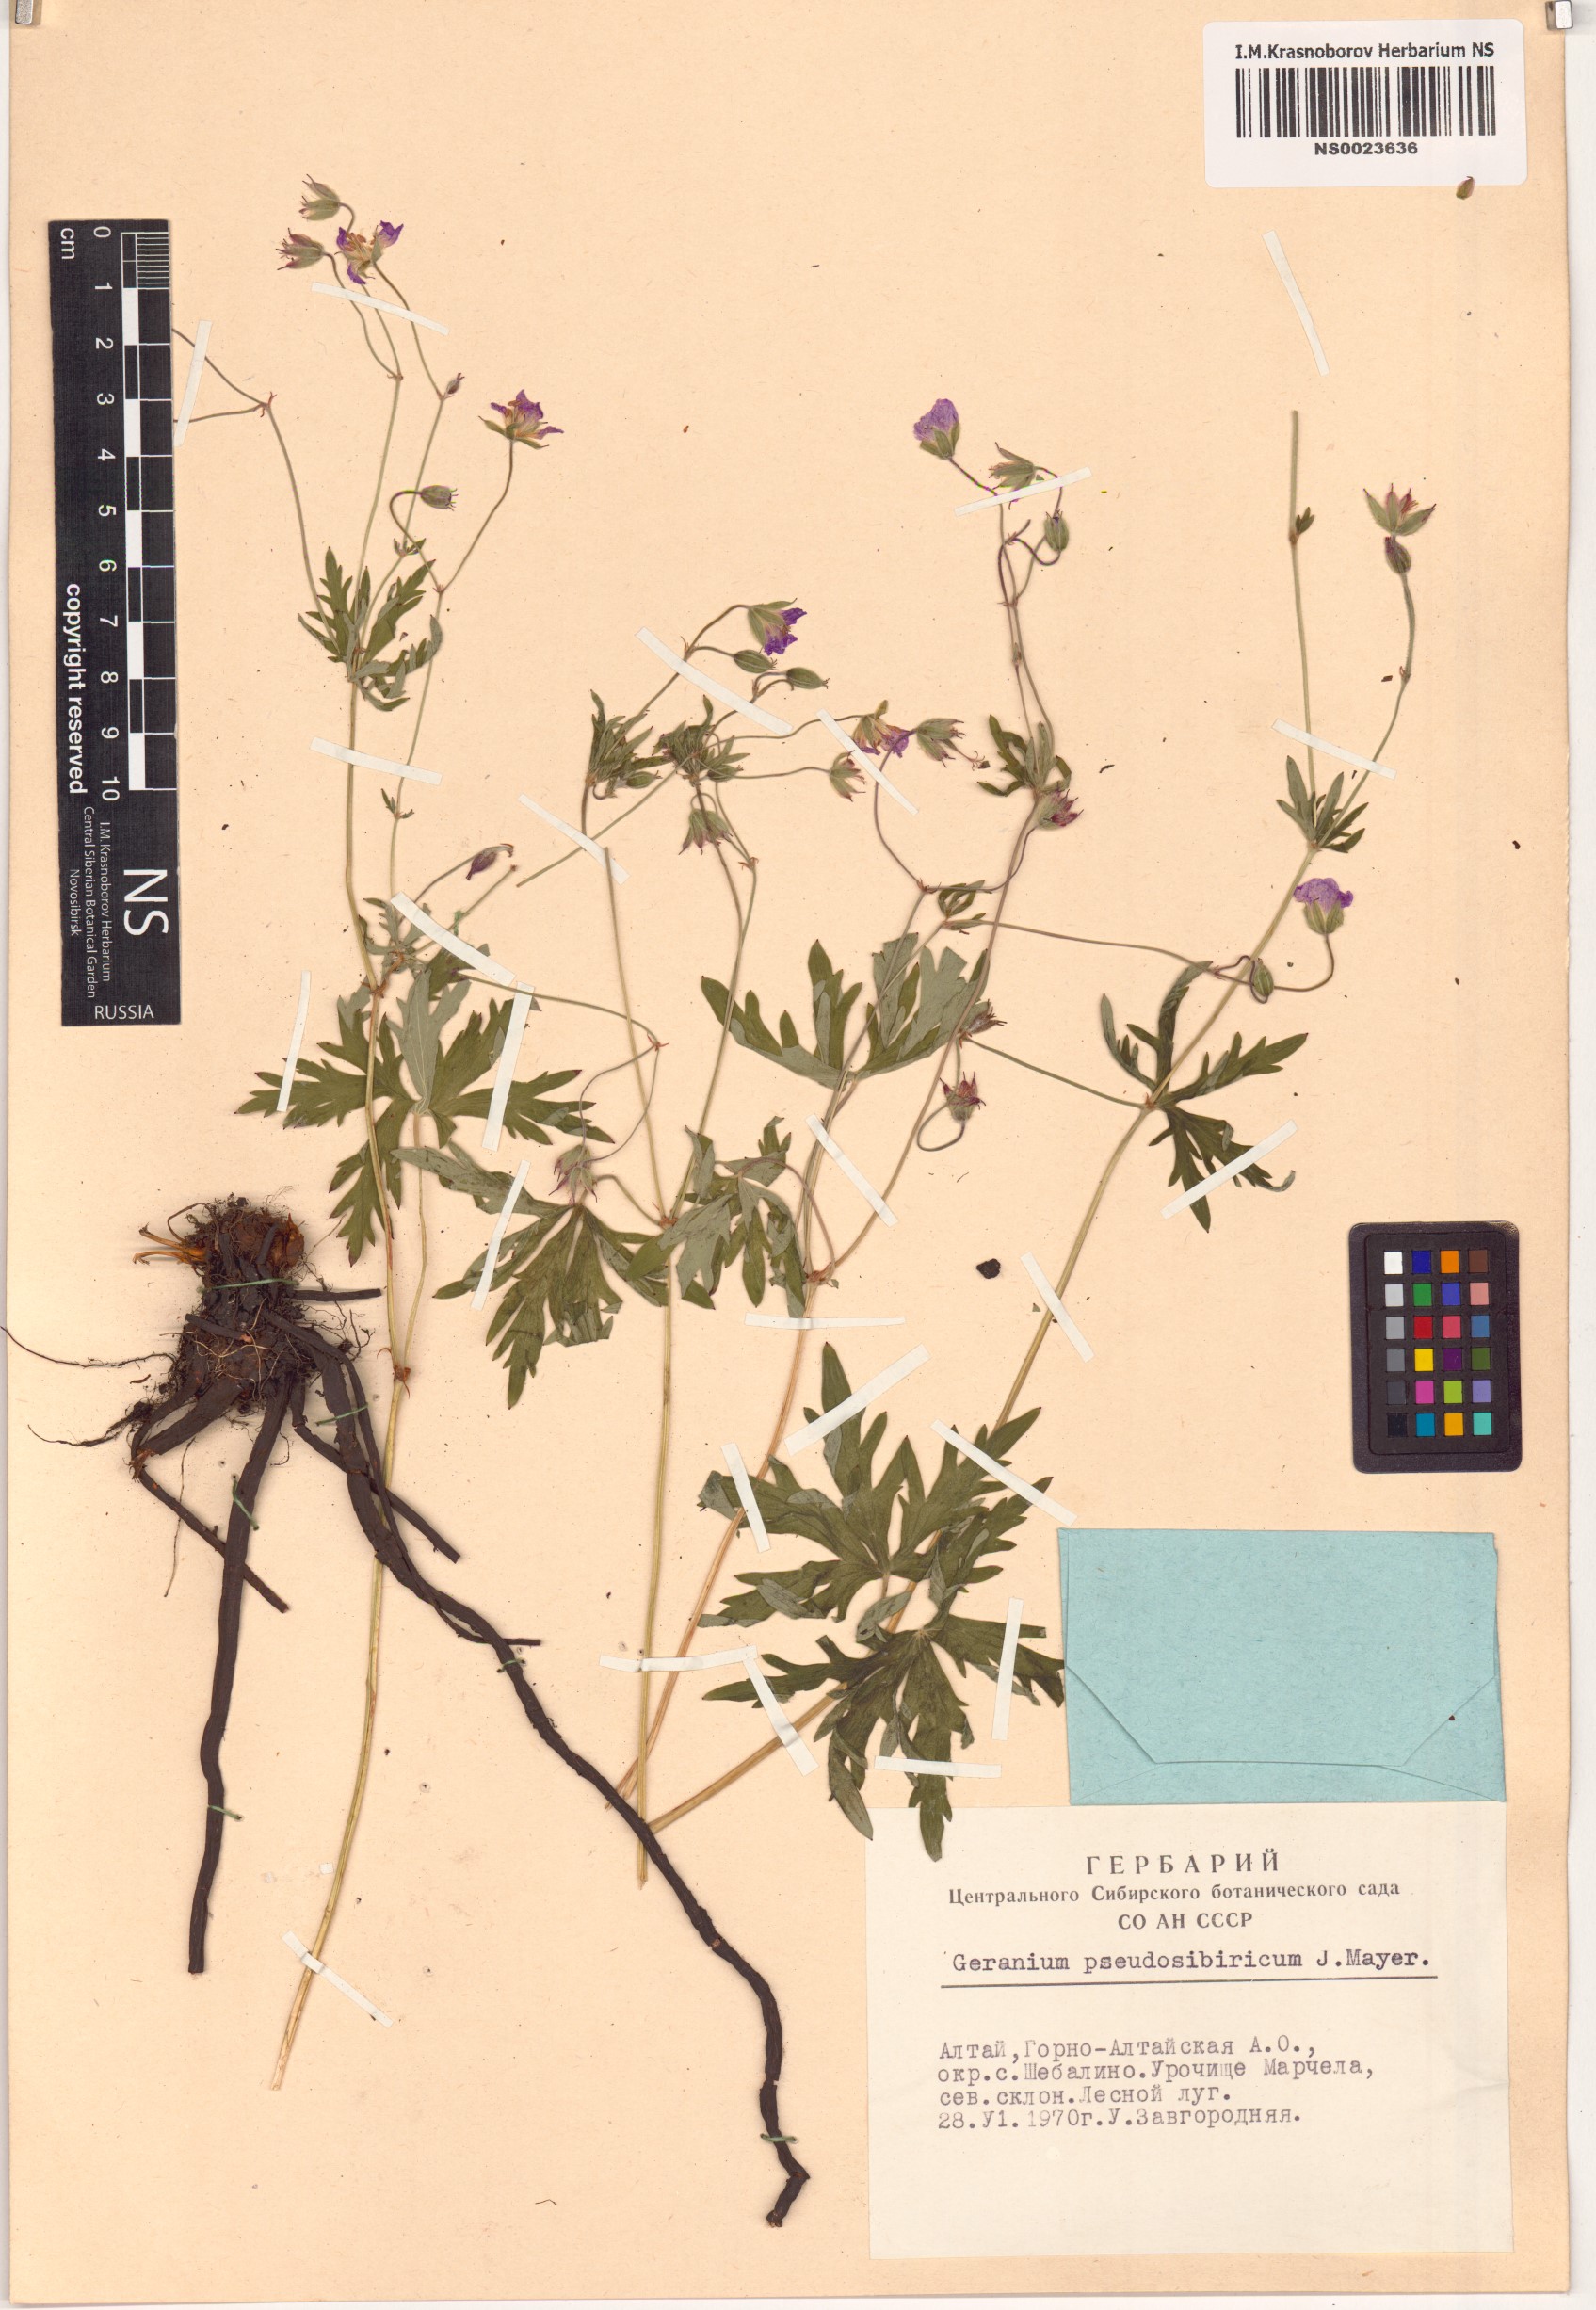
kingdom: Plantae
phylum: Tracheophyta
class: Magnoliopsida
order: Geraniales
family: Geraniaceae
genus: Geranium
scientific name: Geranium pseudosibiricum
